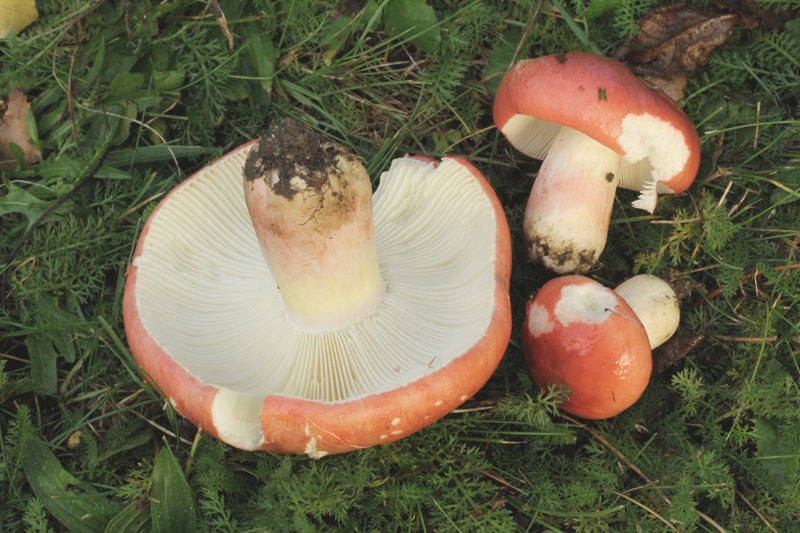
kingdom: Fungi
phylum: Basidiomycota
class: Agaricomycetes
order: Russulales
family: Russulaceae
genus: Russula
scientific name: Russula rosea
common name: fastkødet skørhat
